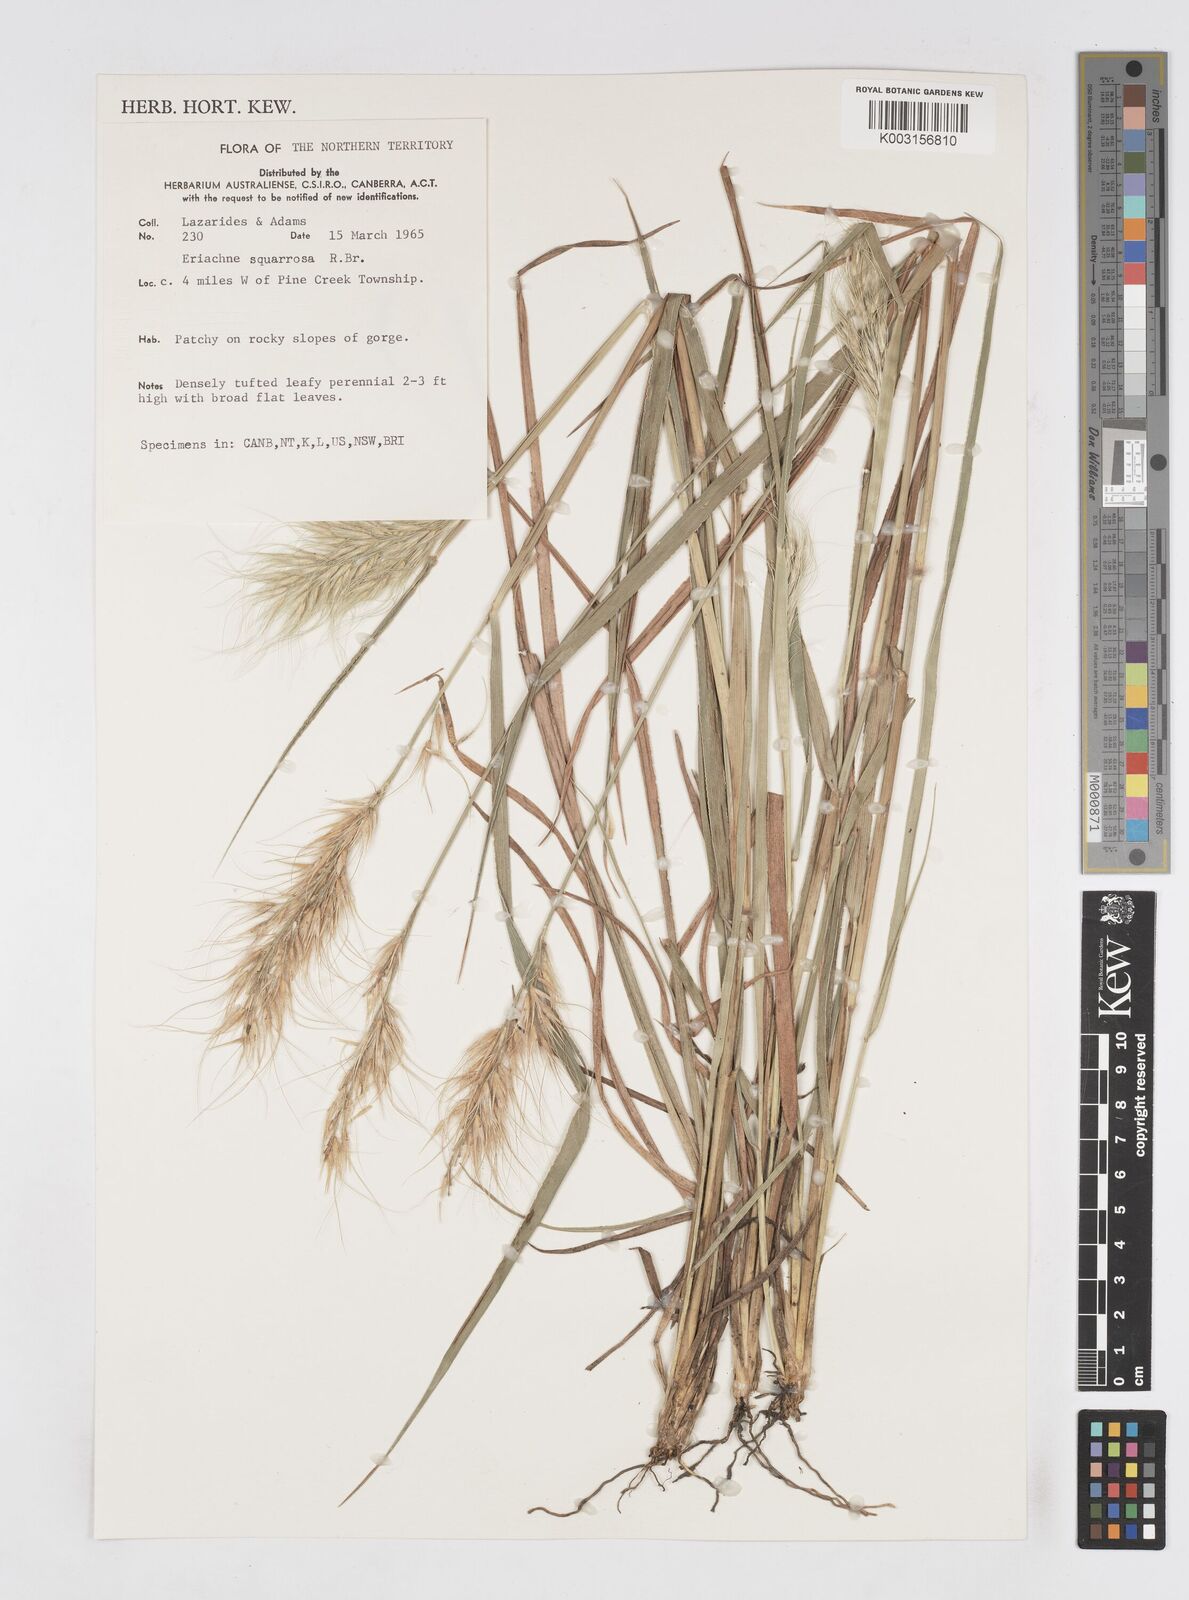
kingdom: Plantae
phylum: Tracheophyta
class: Liliopsida
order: Poales
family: Poaceae
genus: Eriachne
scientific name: Eriachne squarrosa
